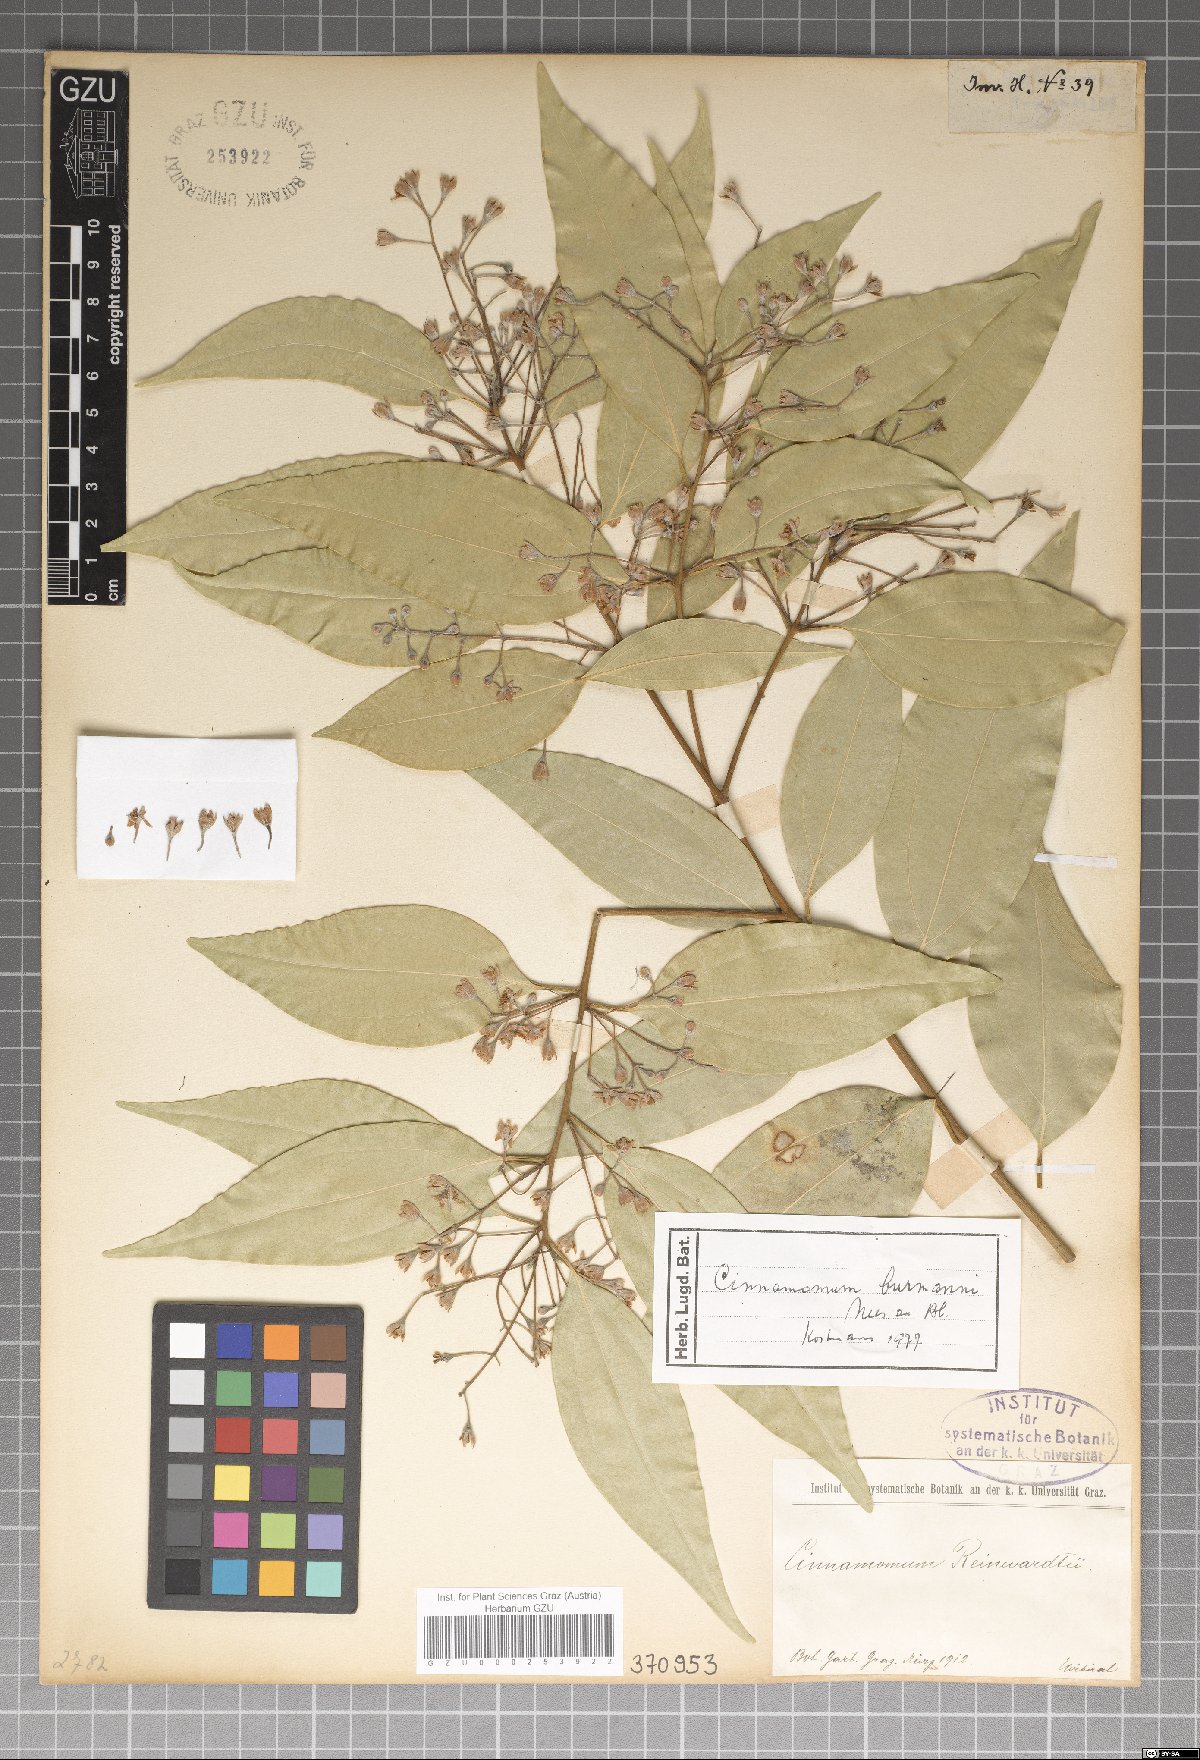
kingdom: Plantae
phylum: Tracheophyta
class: Magnoliopsida
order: Laurales
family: Lauraceae
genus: Cinnamomum
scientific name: Cinnamomum burmanni
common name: Padang cassia
